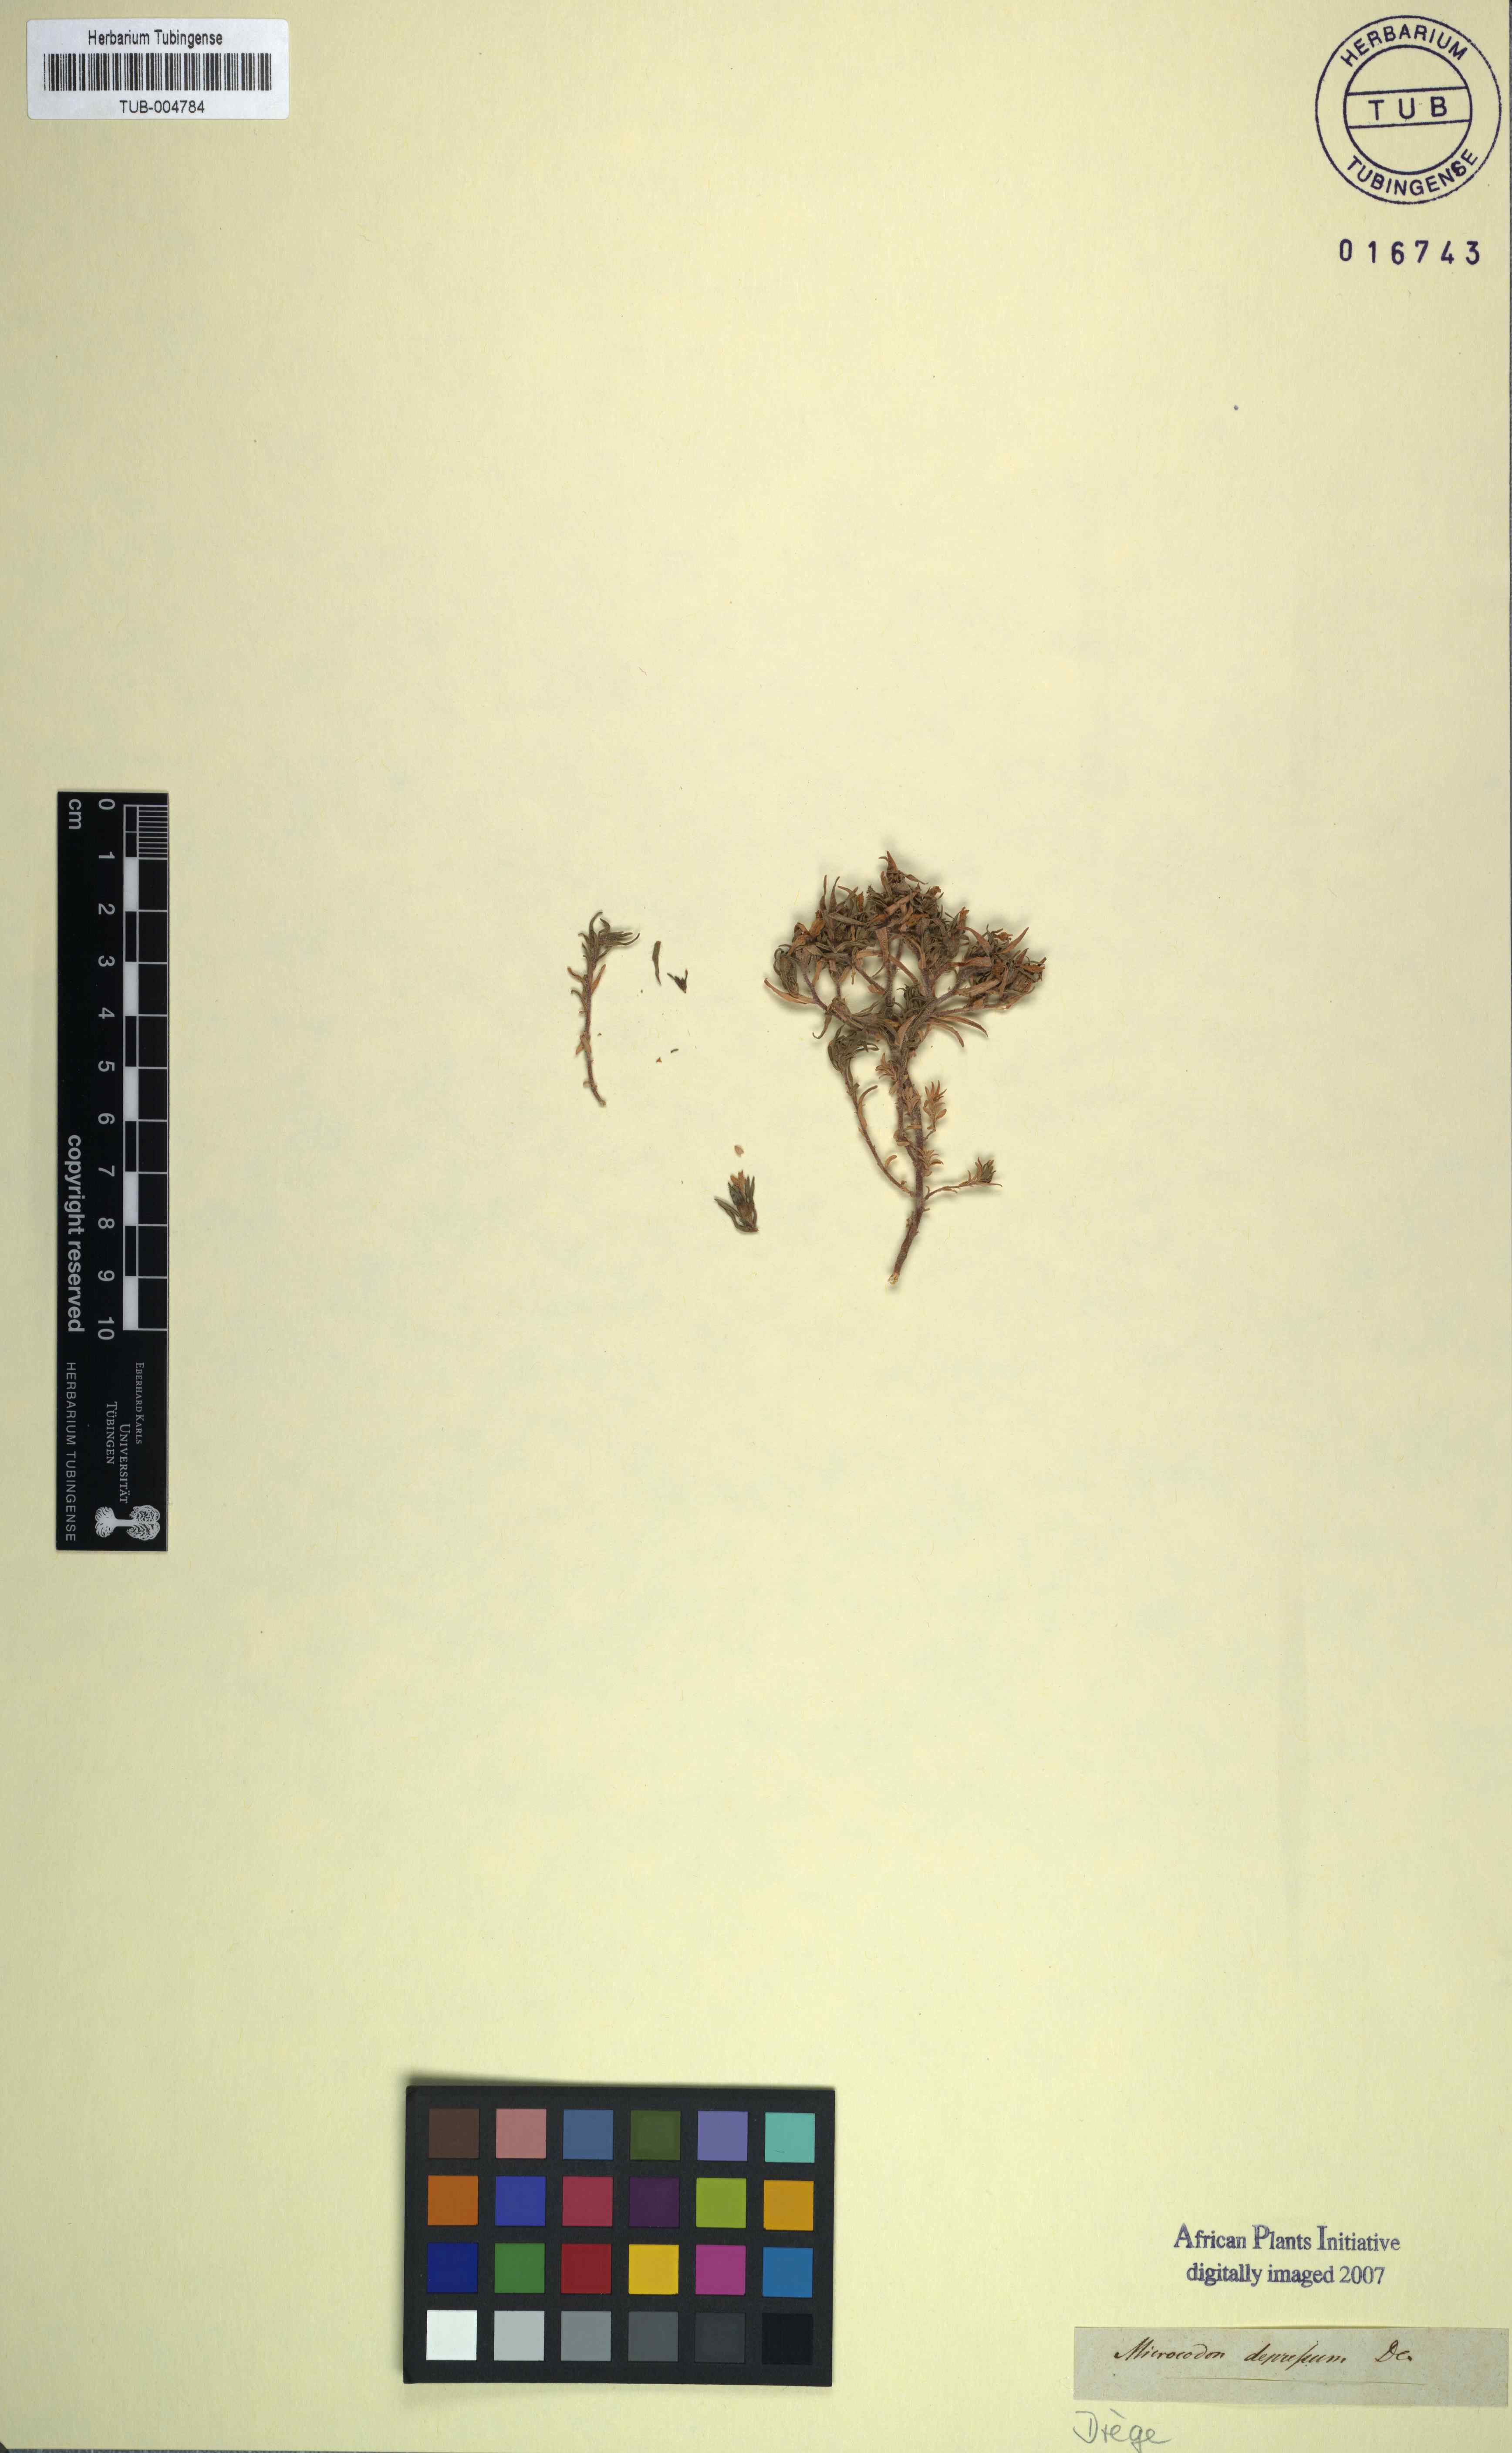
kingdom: Plantae
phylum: Tracheophyta
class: Magnoliopsida
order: Asterales
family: Campanulaceae
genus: Microcodon
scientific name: Microcodon hispidulus
